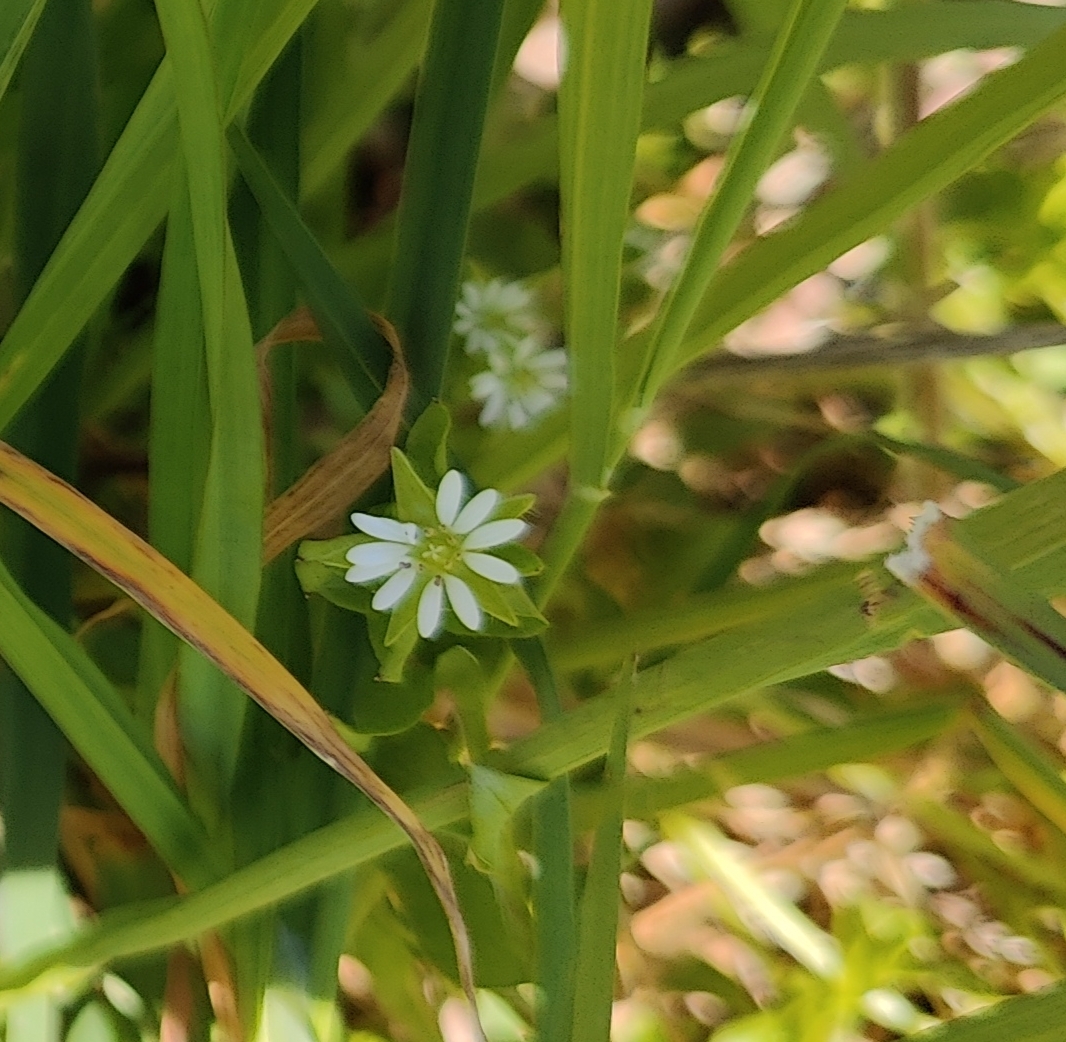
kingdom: Plantae
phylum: Tracheophyta
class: Magnoliopsida
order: Caryophyllales
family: Caryophyllaceae
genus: Stellaria
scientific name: Stellaria media
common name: Almindelig fuglegræs
